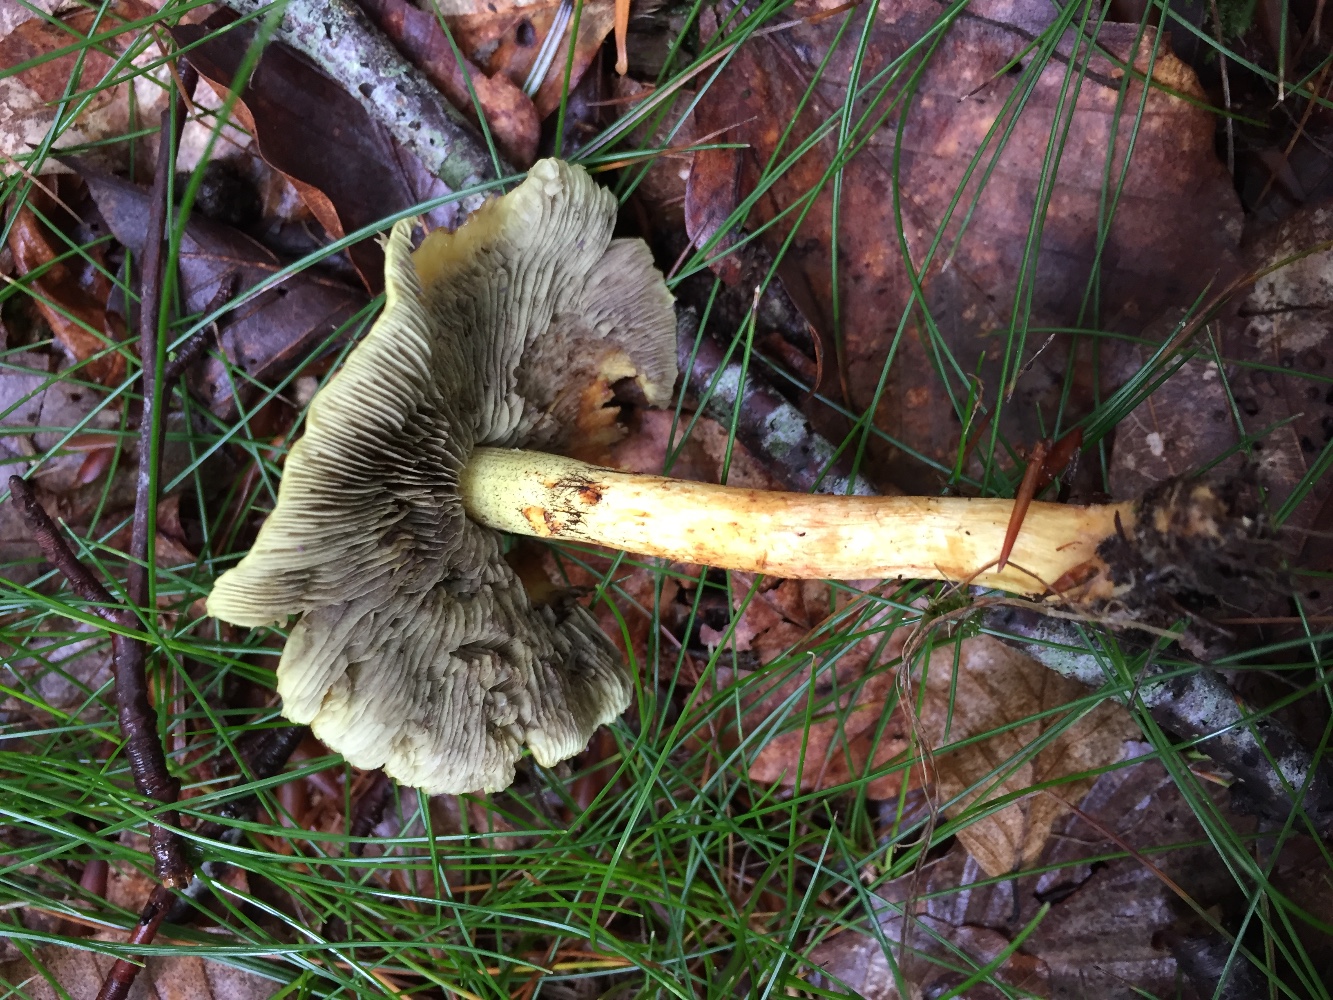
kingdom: Fungi
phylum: Basidiomycota
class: Agaricomycetes
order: Agaricales
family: Strophariaceae
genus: Hypholoma
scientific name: Hypholoma fasciculare
